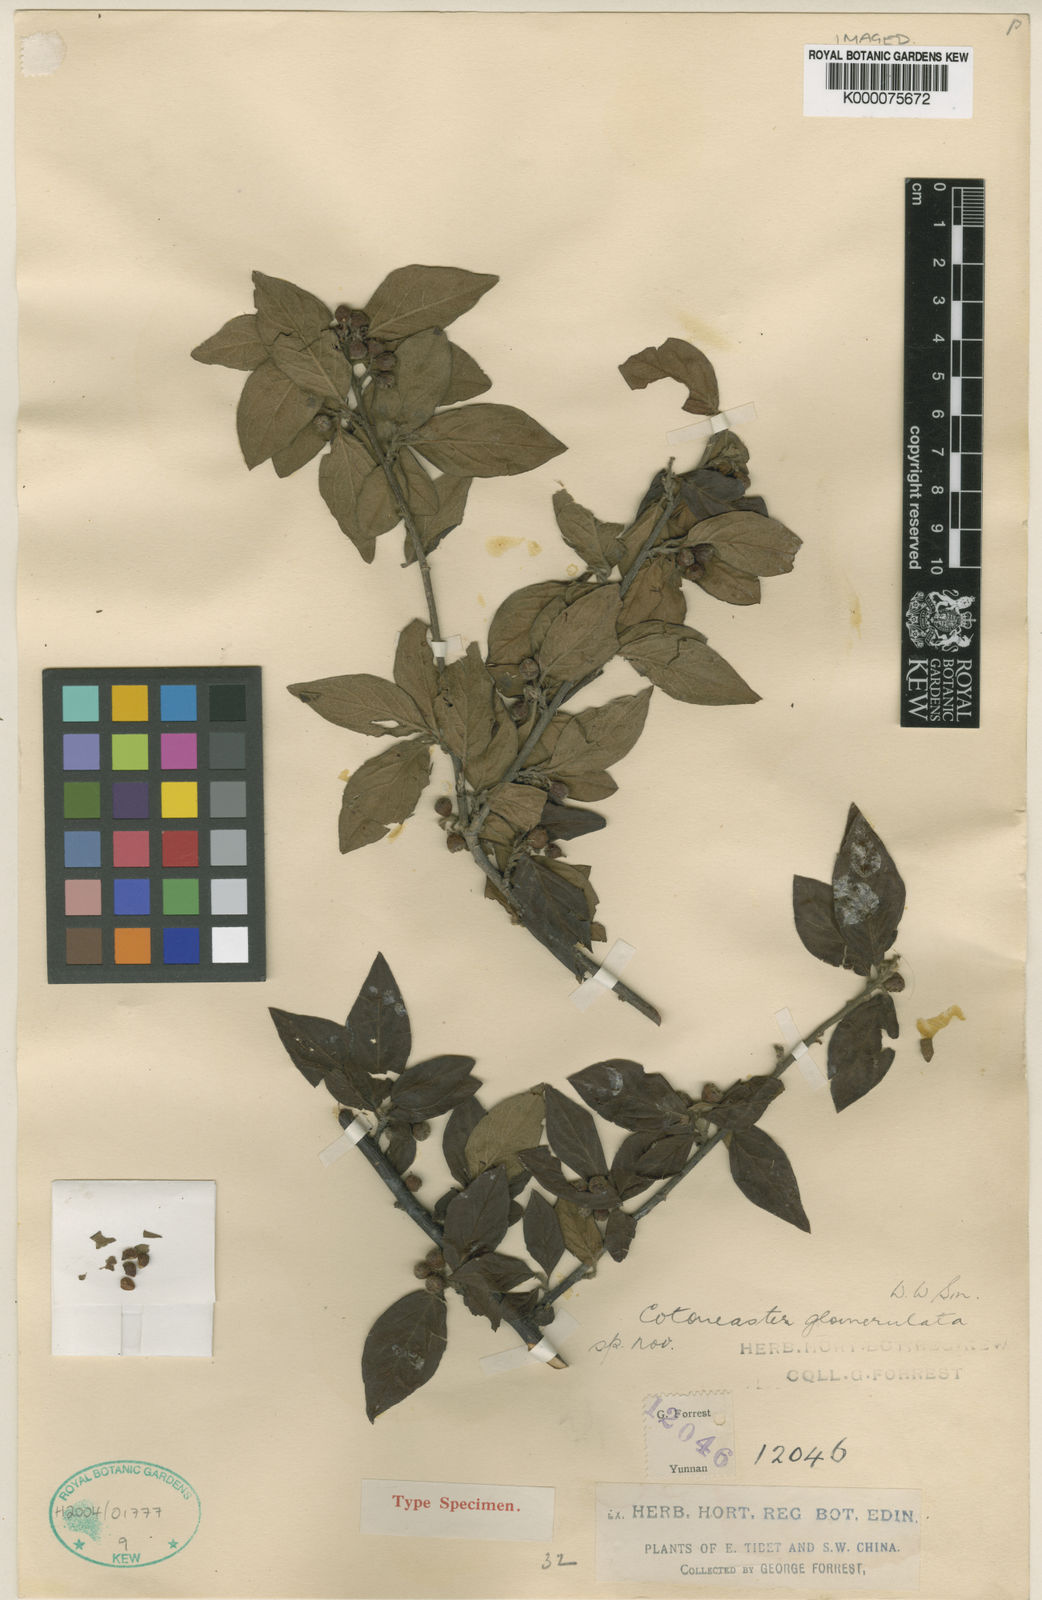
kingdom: Plantae
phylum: Tracheophyta
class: Magnoliopsida
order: Rosales
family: Rosaceae
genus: Cotoneaster
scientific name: Cotoneaster bullatus
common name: Hollyberry cotoneaster
